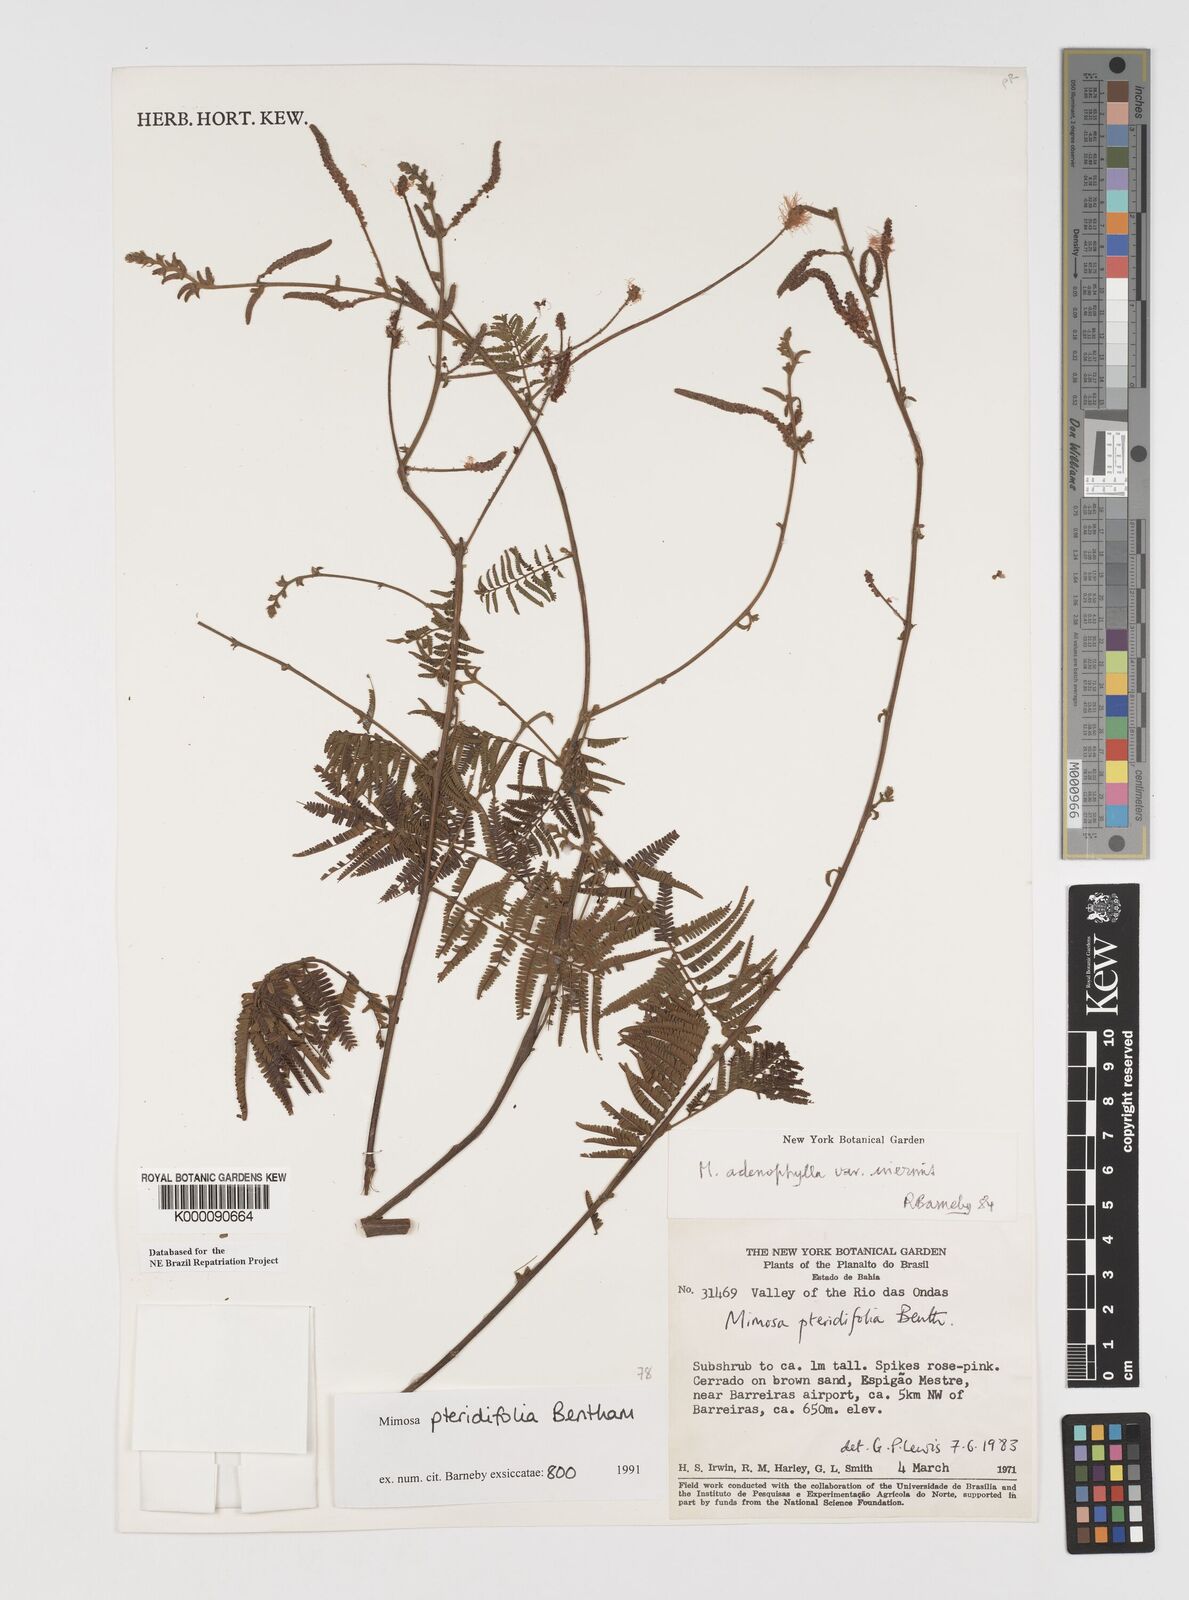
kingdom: Plantae
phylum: Tracheophyta
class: Magnoliopsida
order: Fabales
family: Fabaceae
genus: Mimosa
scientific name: Mimosa pteridifolia
